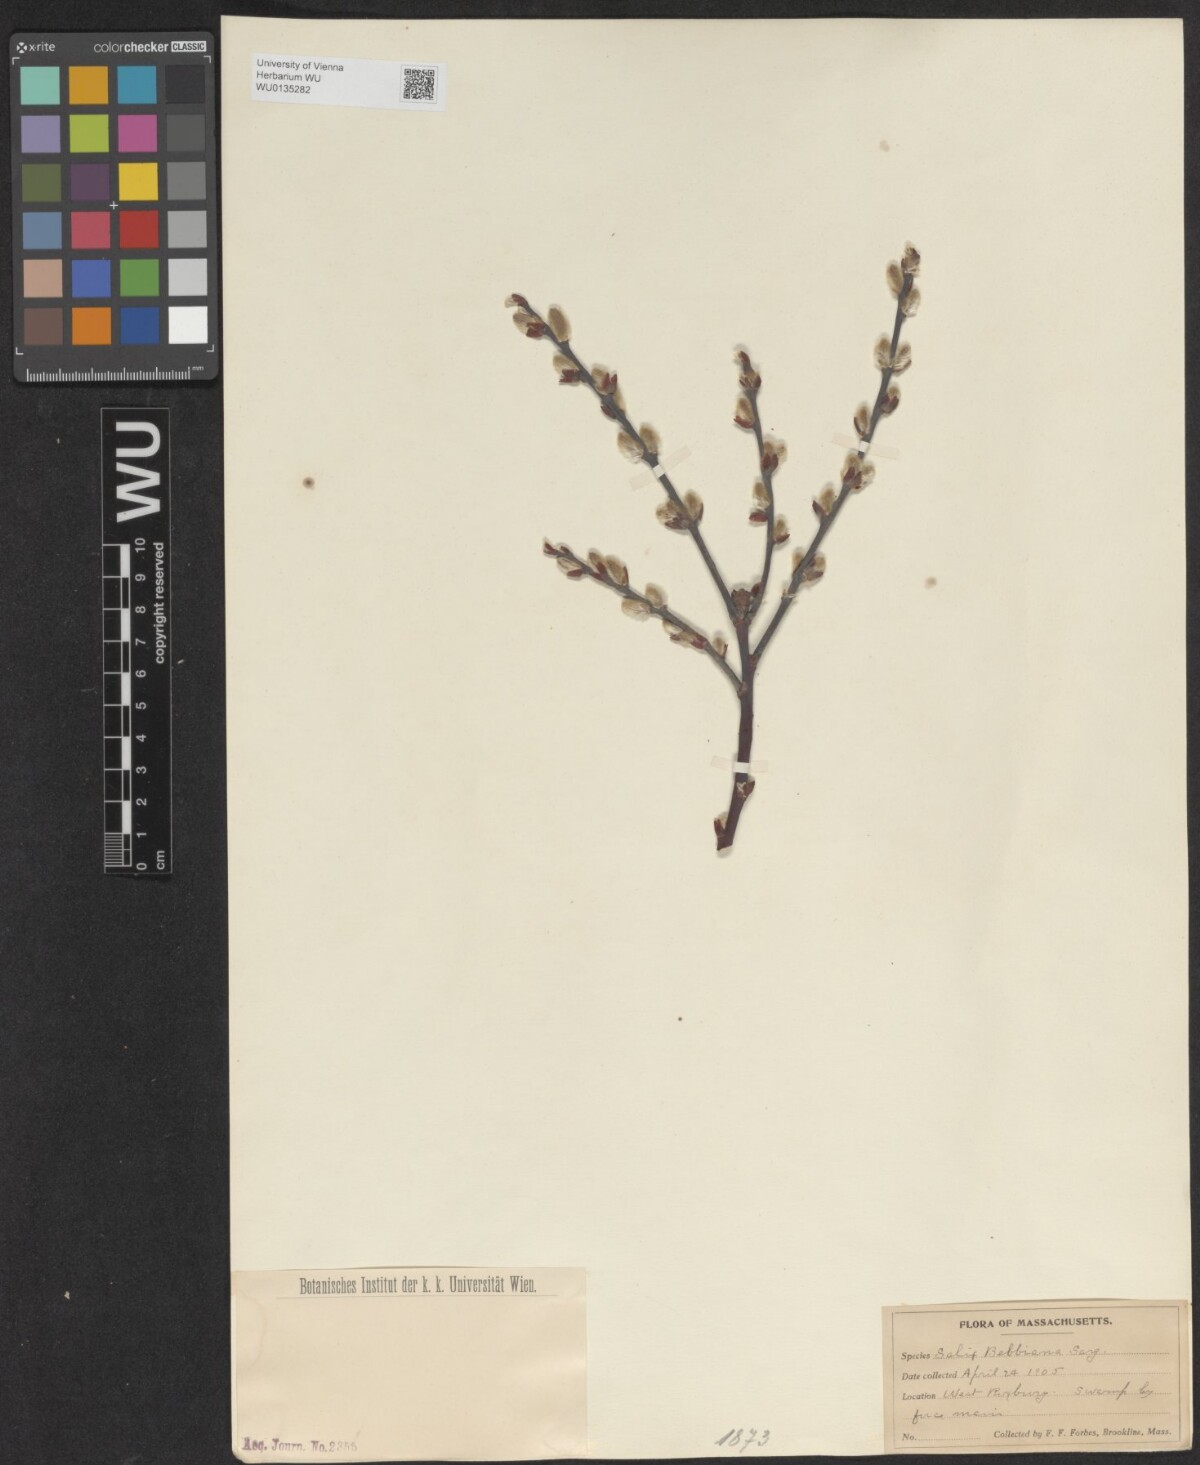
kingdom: Plantae
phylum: Tracheophyta
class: Magnoliopsida
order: Malpighiales
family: Salicaceae
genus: Salix
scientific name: Salix bebbiana
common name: Bebb's willow
